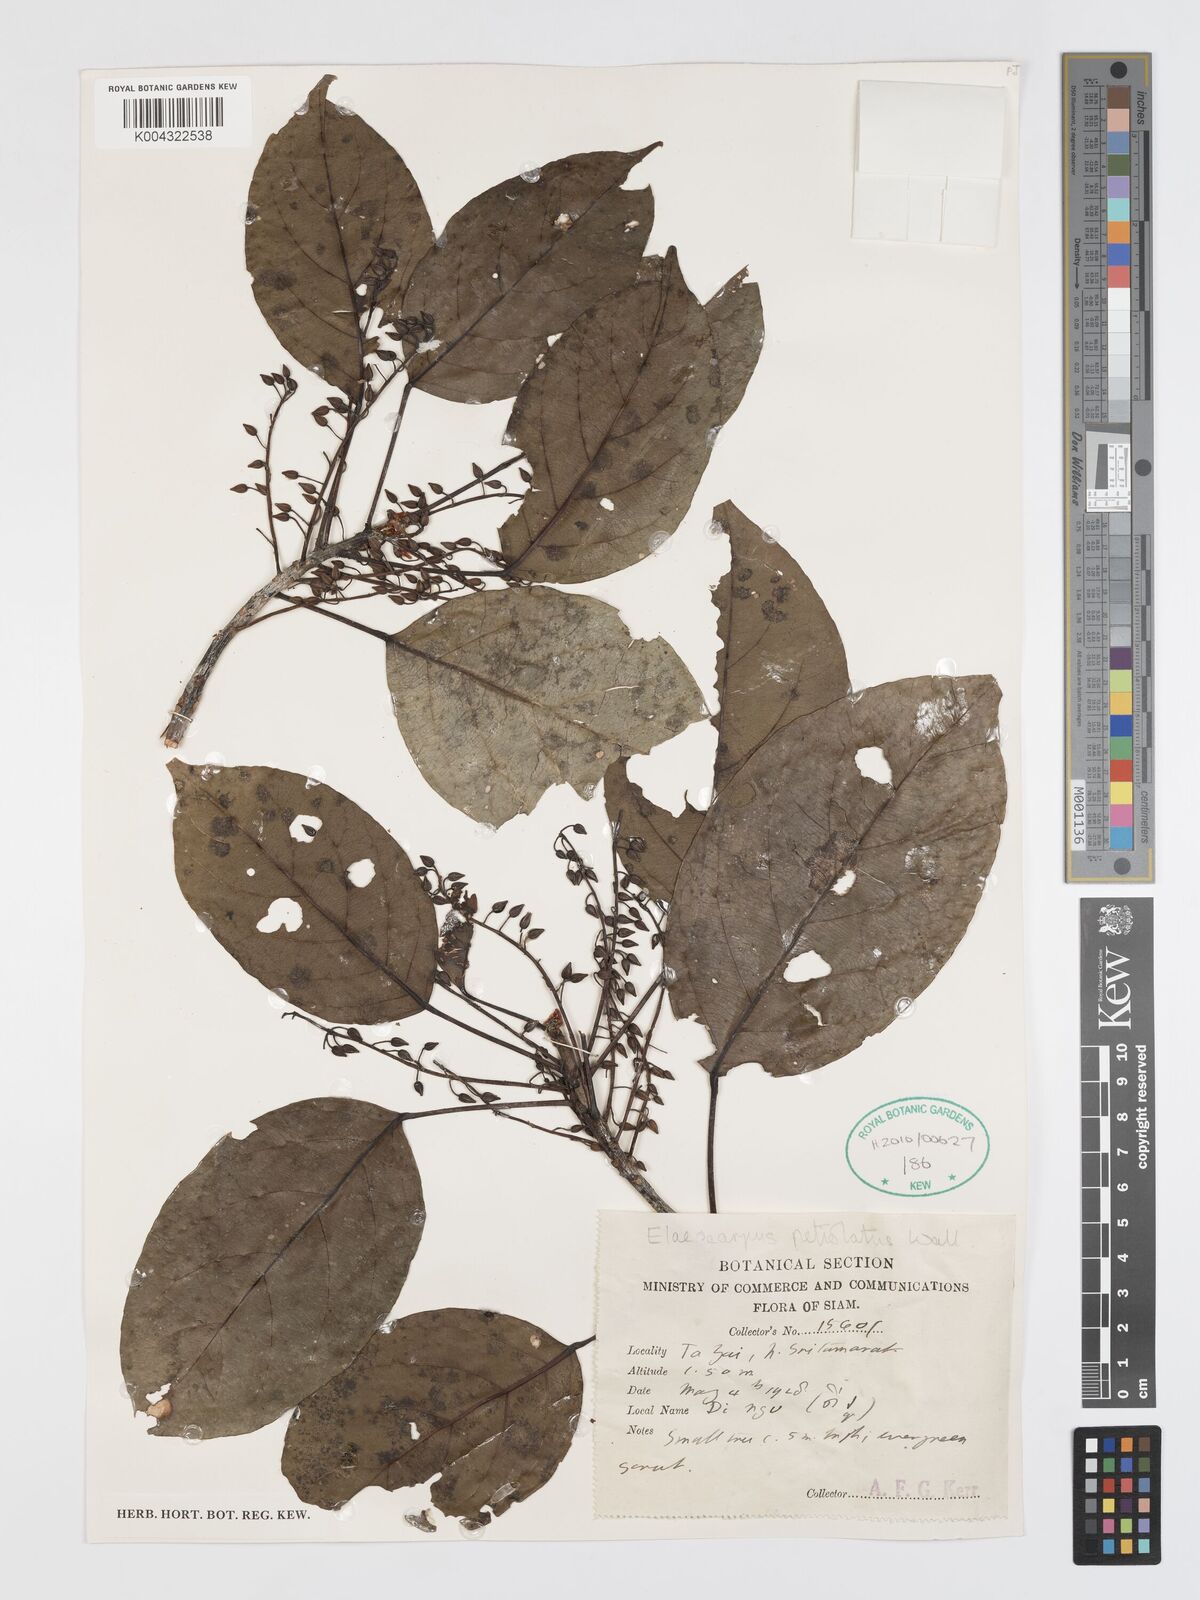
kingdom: Plantae
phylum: Tracheophyta
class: Magnoliopsida
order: Oxalidales
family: Elaeocarpaceae
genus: Elaeocarpus
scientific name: Elaeocarpus petiolatus
